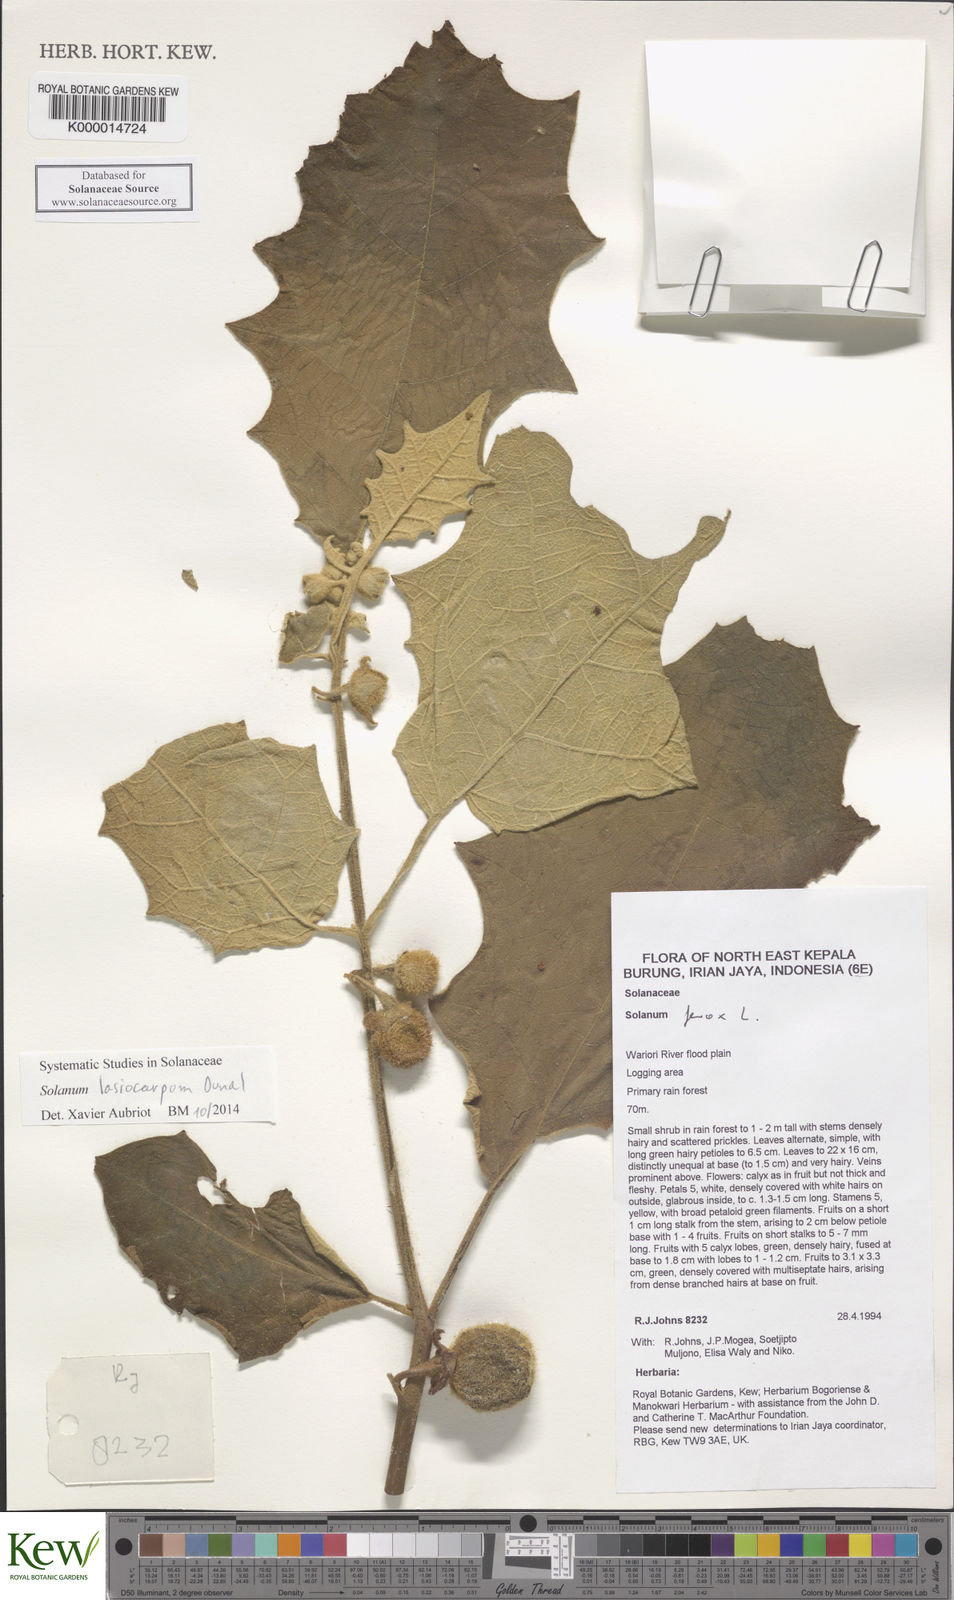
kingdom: Plantae
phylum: Tracheophyta
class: Magnoliopsida
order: Solanales
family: Solanaceae
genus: Solanum
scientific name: Solanum lasiocarpum
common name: Indian nightshade
